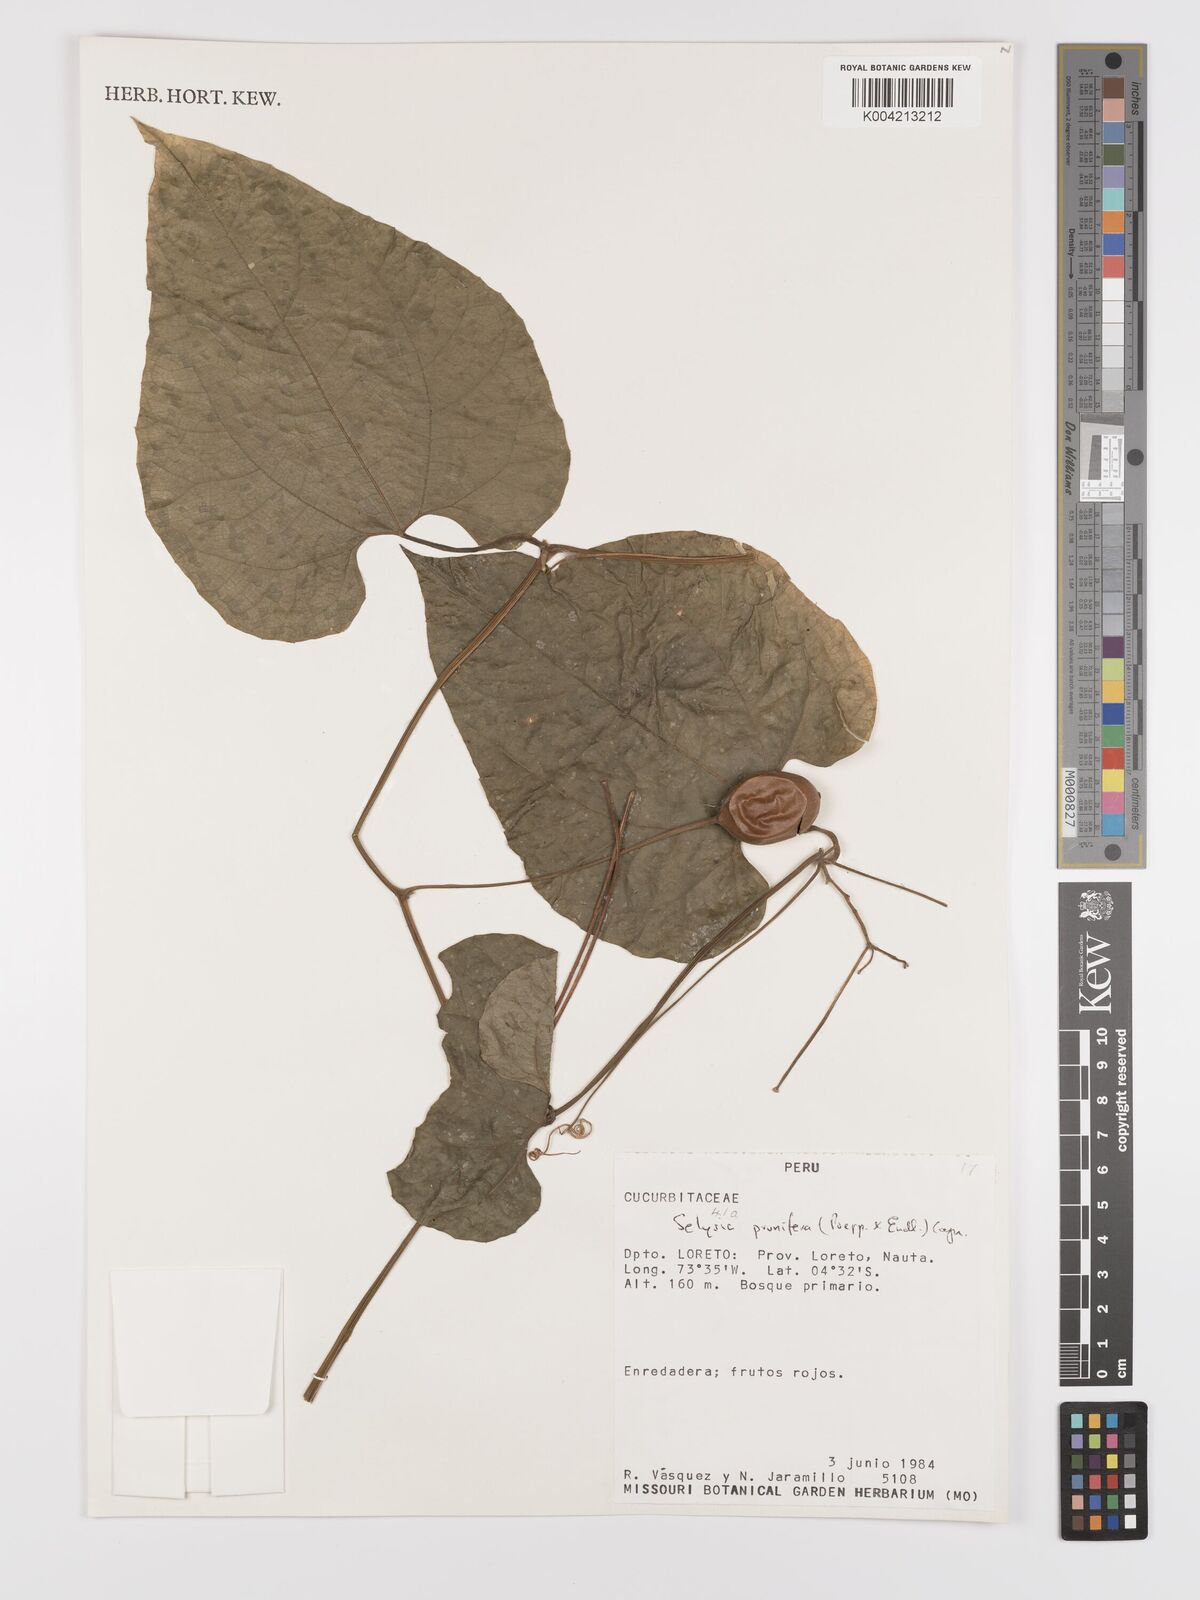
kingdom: Plantae
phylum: Tracheophyta
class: Magnoliopsida
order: Cucurbitales
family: Cucurbitaceae
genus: Cayaponia
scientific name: Cayaponia prunifera
